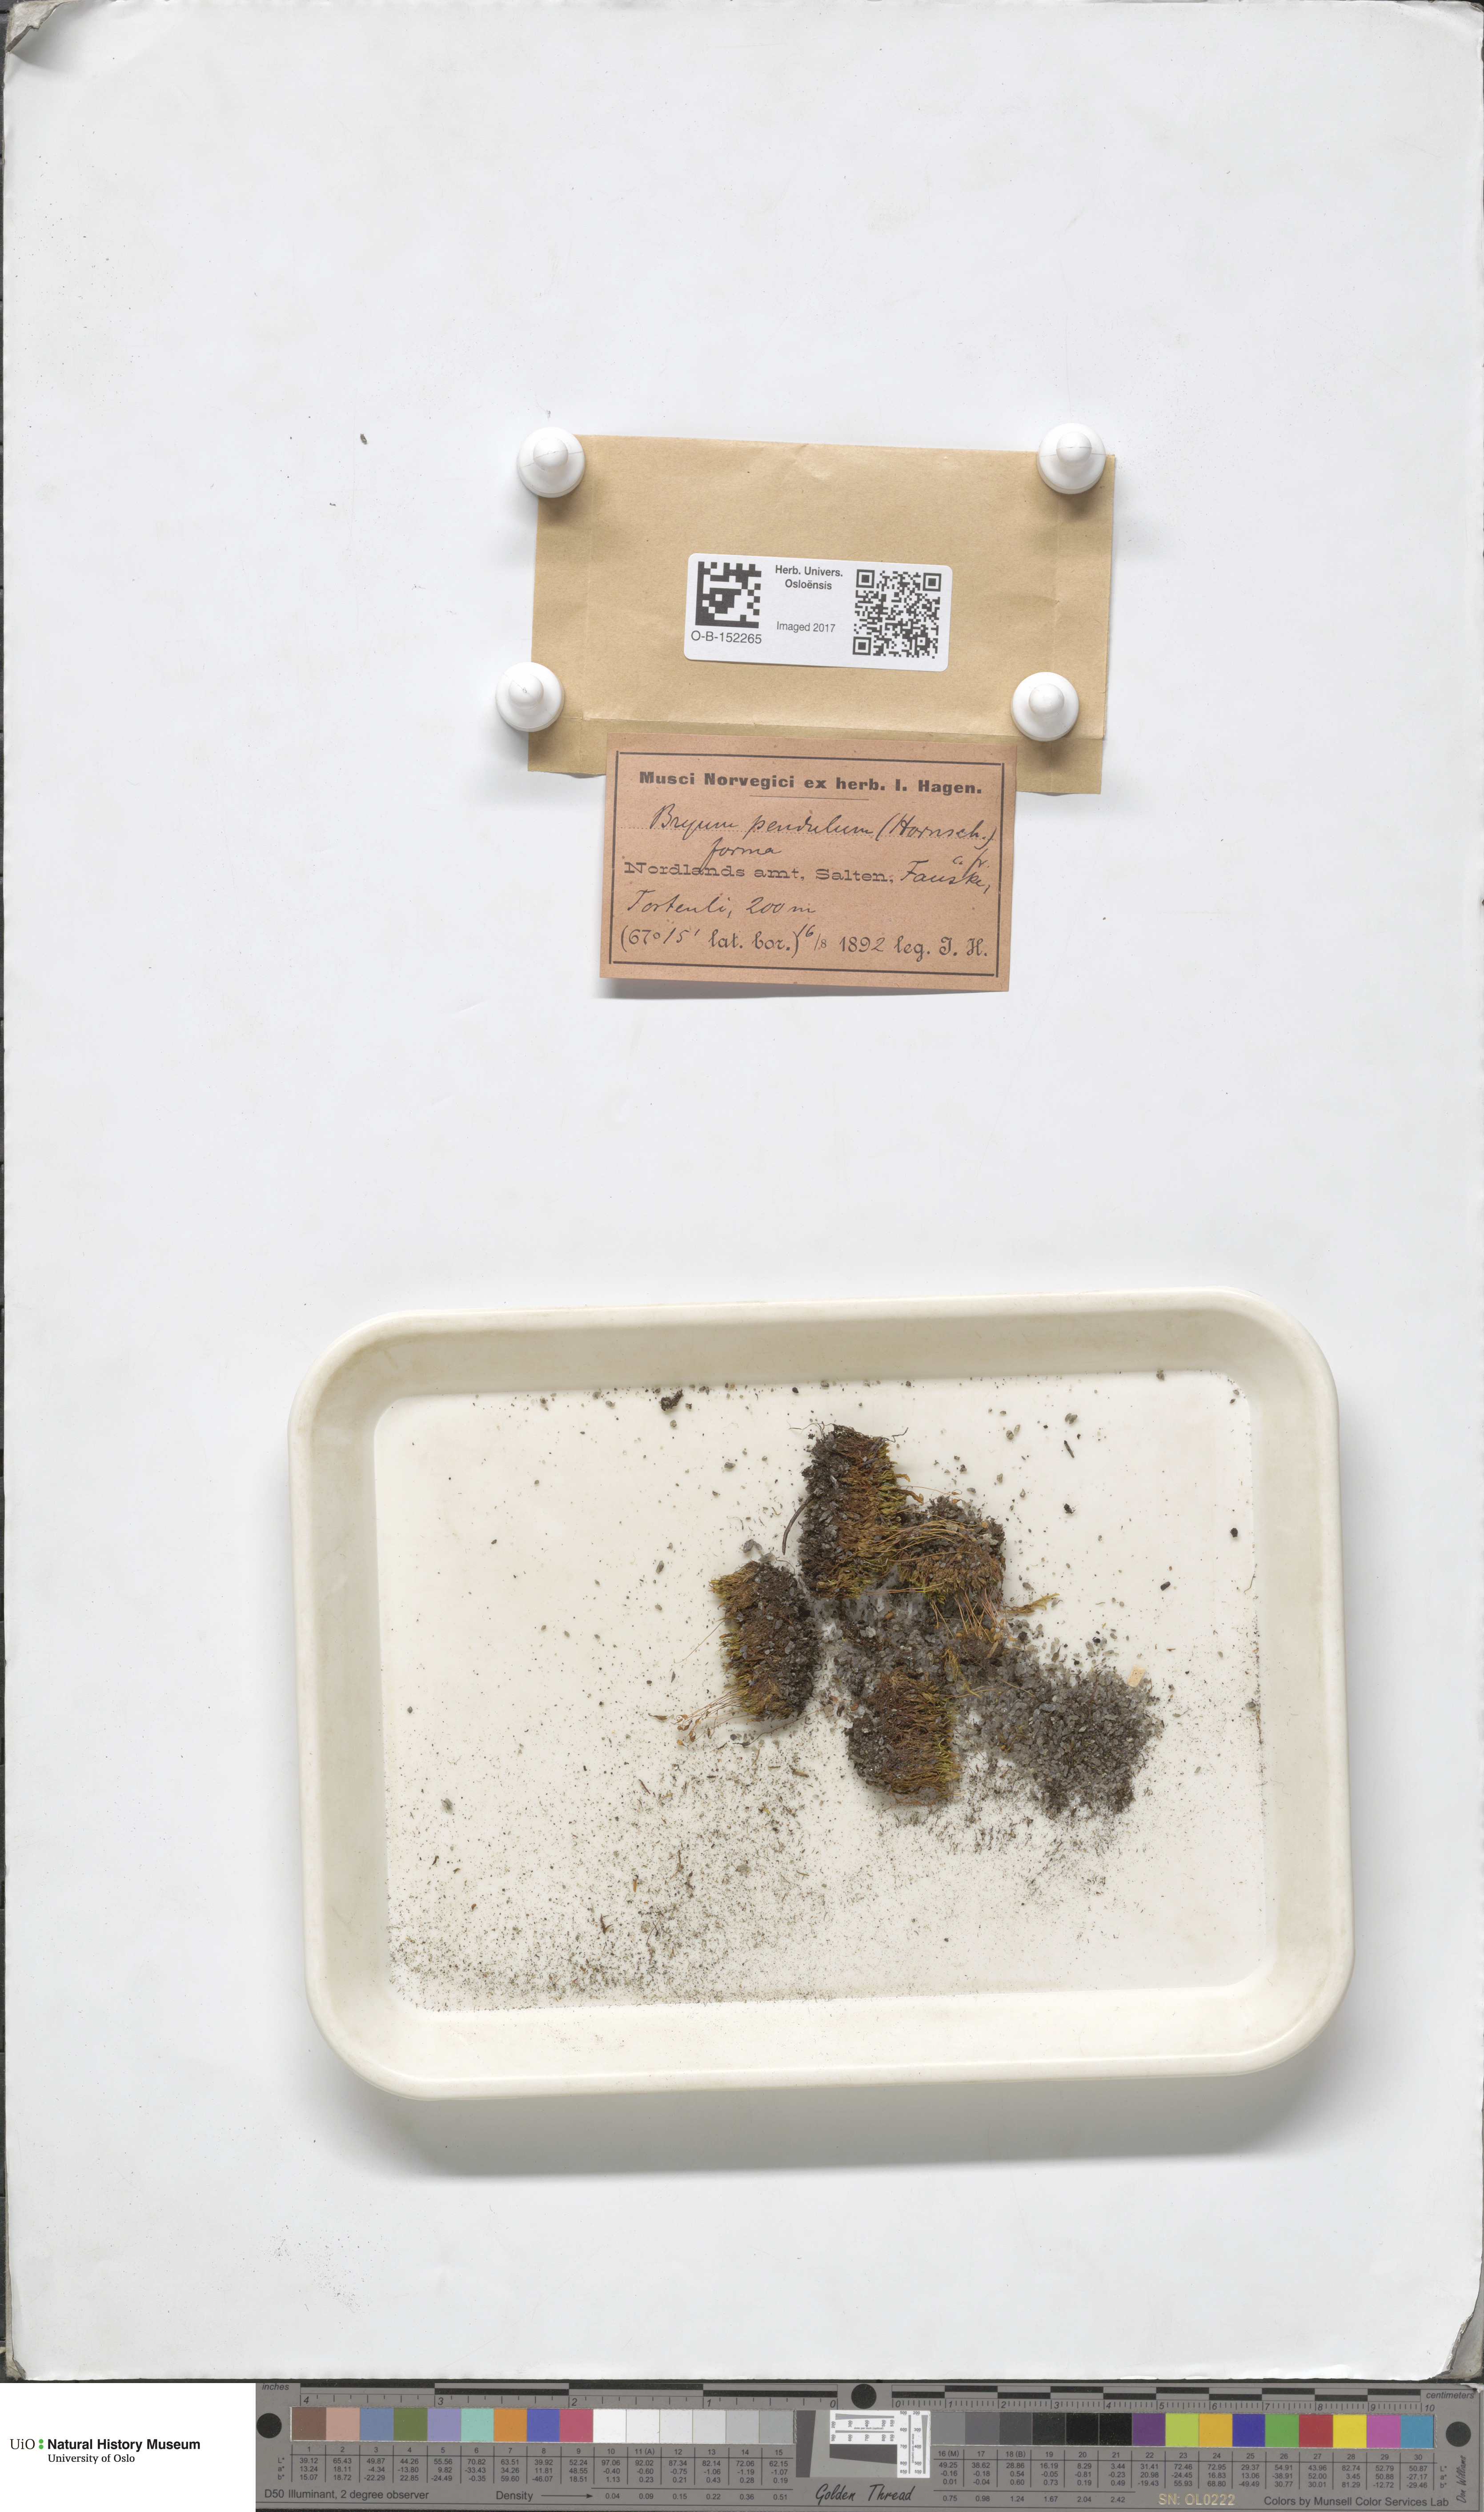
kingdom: Plantae
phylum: Bryophyta
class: Bryopsida
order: Bryales
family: Bryaceae
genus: Ptychostomum
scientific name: Ptychostomum compactum
